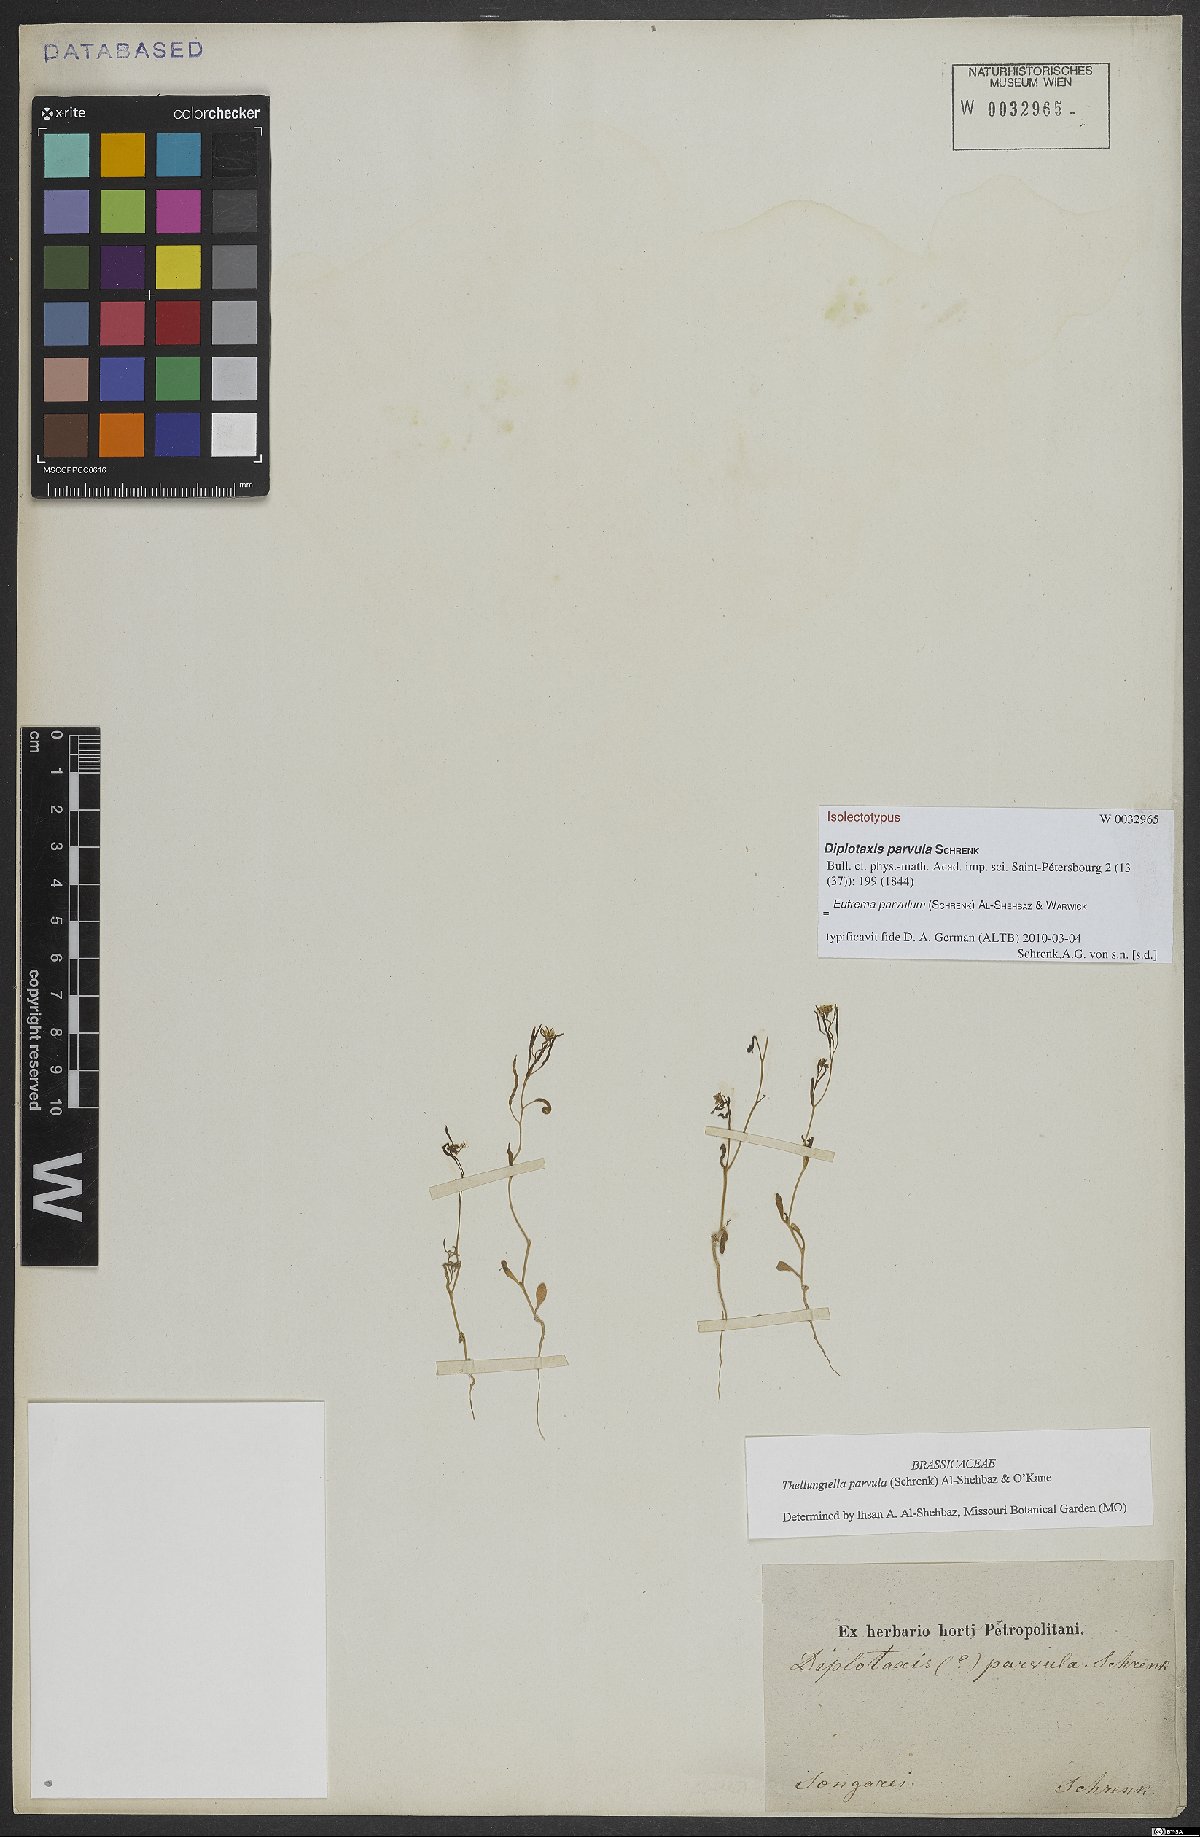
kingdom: Plantae
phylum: Tracheophyta
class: Magnoliopsida
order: Brassicales
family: Brassicaceae
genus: Schrenkiella
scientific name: Schrenkiella parvula
